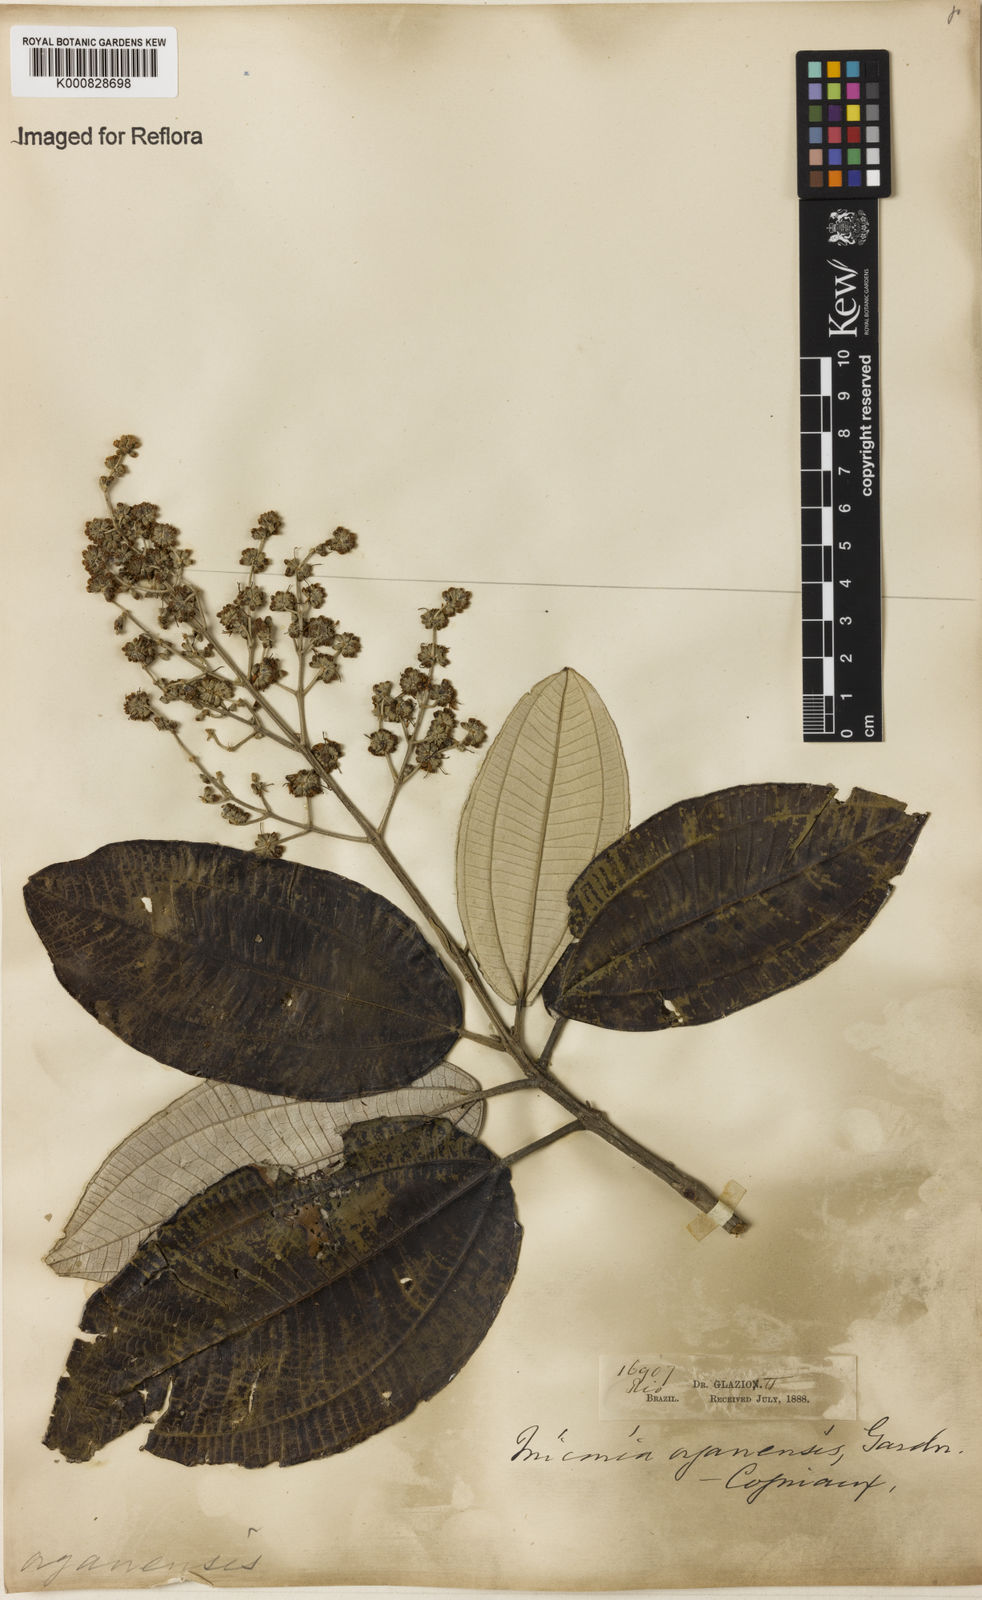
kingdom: Plantae
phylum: Tracheophyta
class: Magnoliopsida
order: Myrtales
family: Melastomataceae
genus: Miconia
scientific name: Miconia organensis
